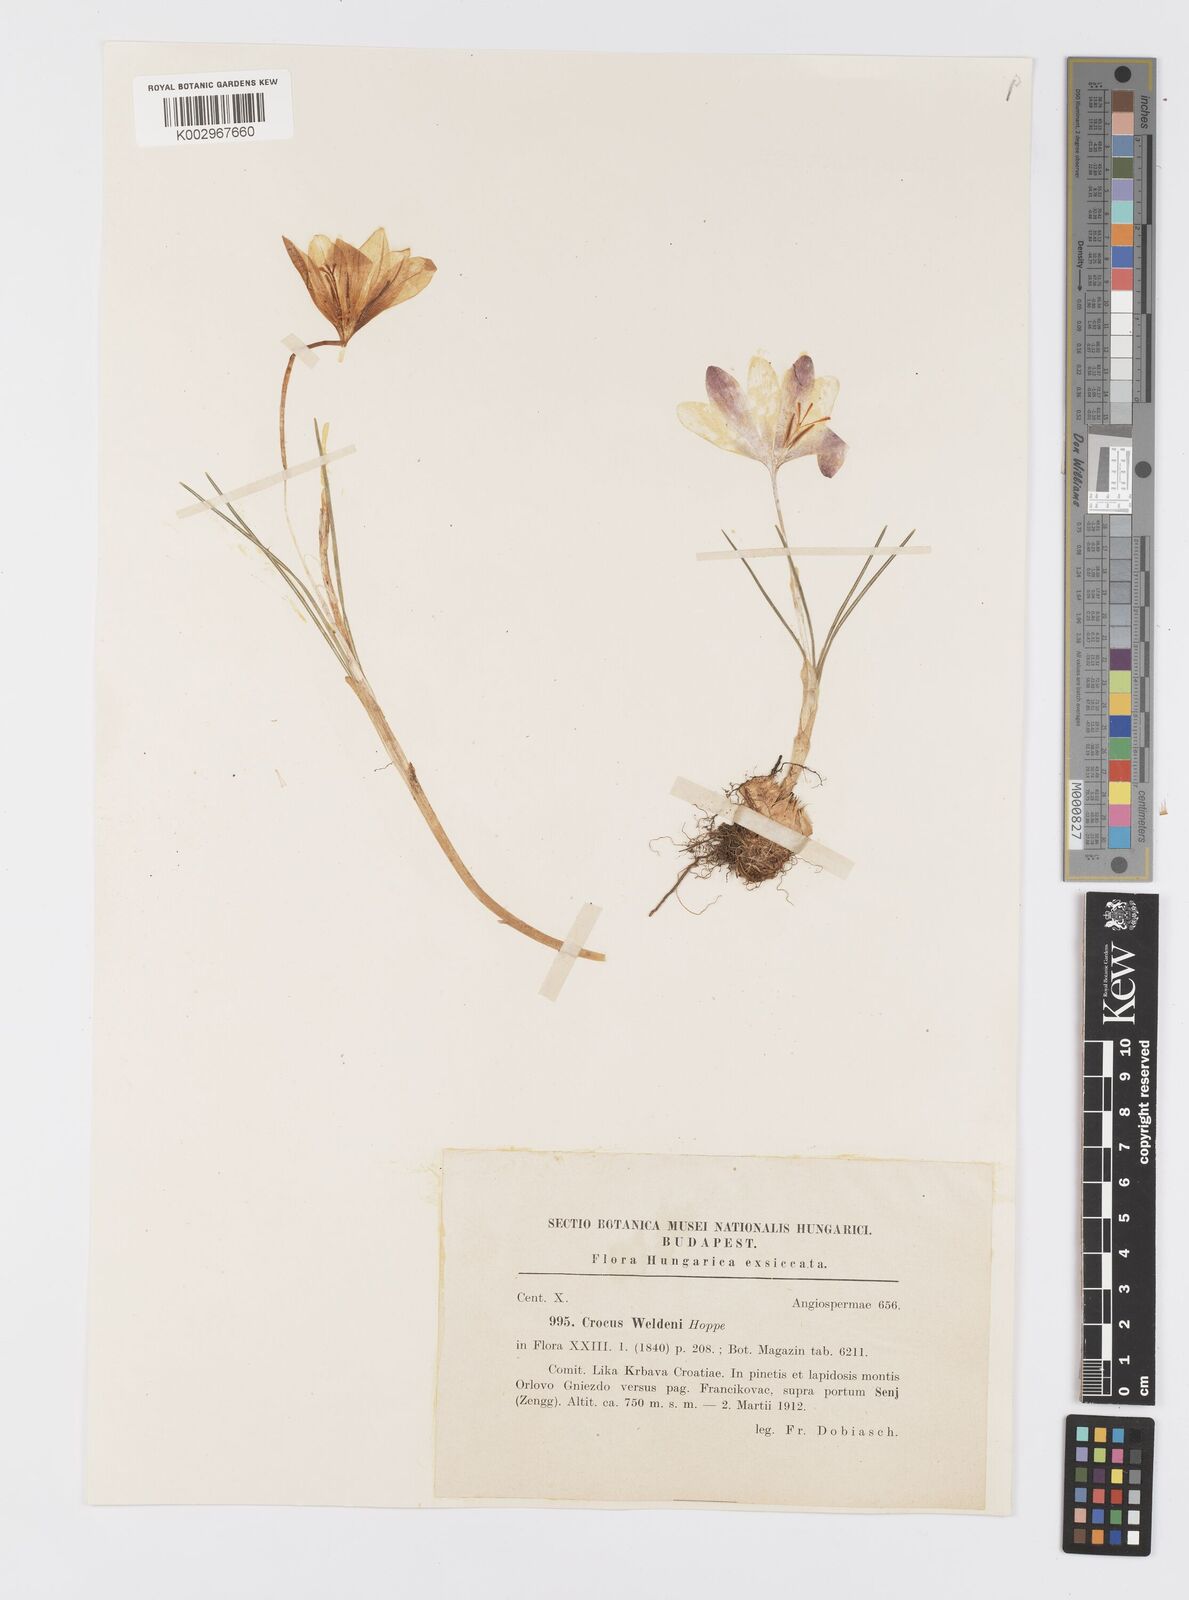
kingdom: Plantae
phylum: Tracheophyta
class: Liliopsida
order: Asparagales
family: Iridaceae
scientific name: Iridaceae
